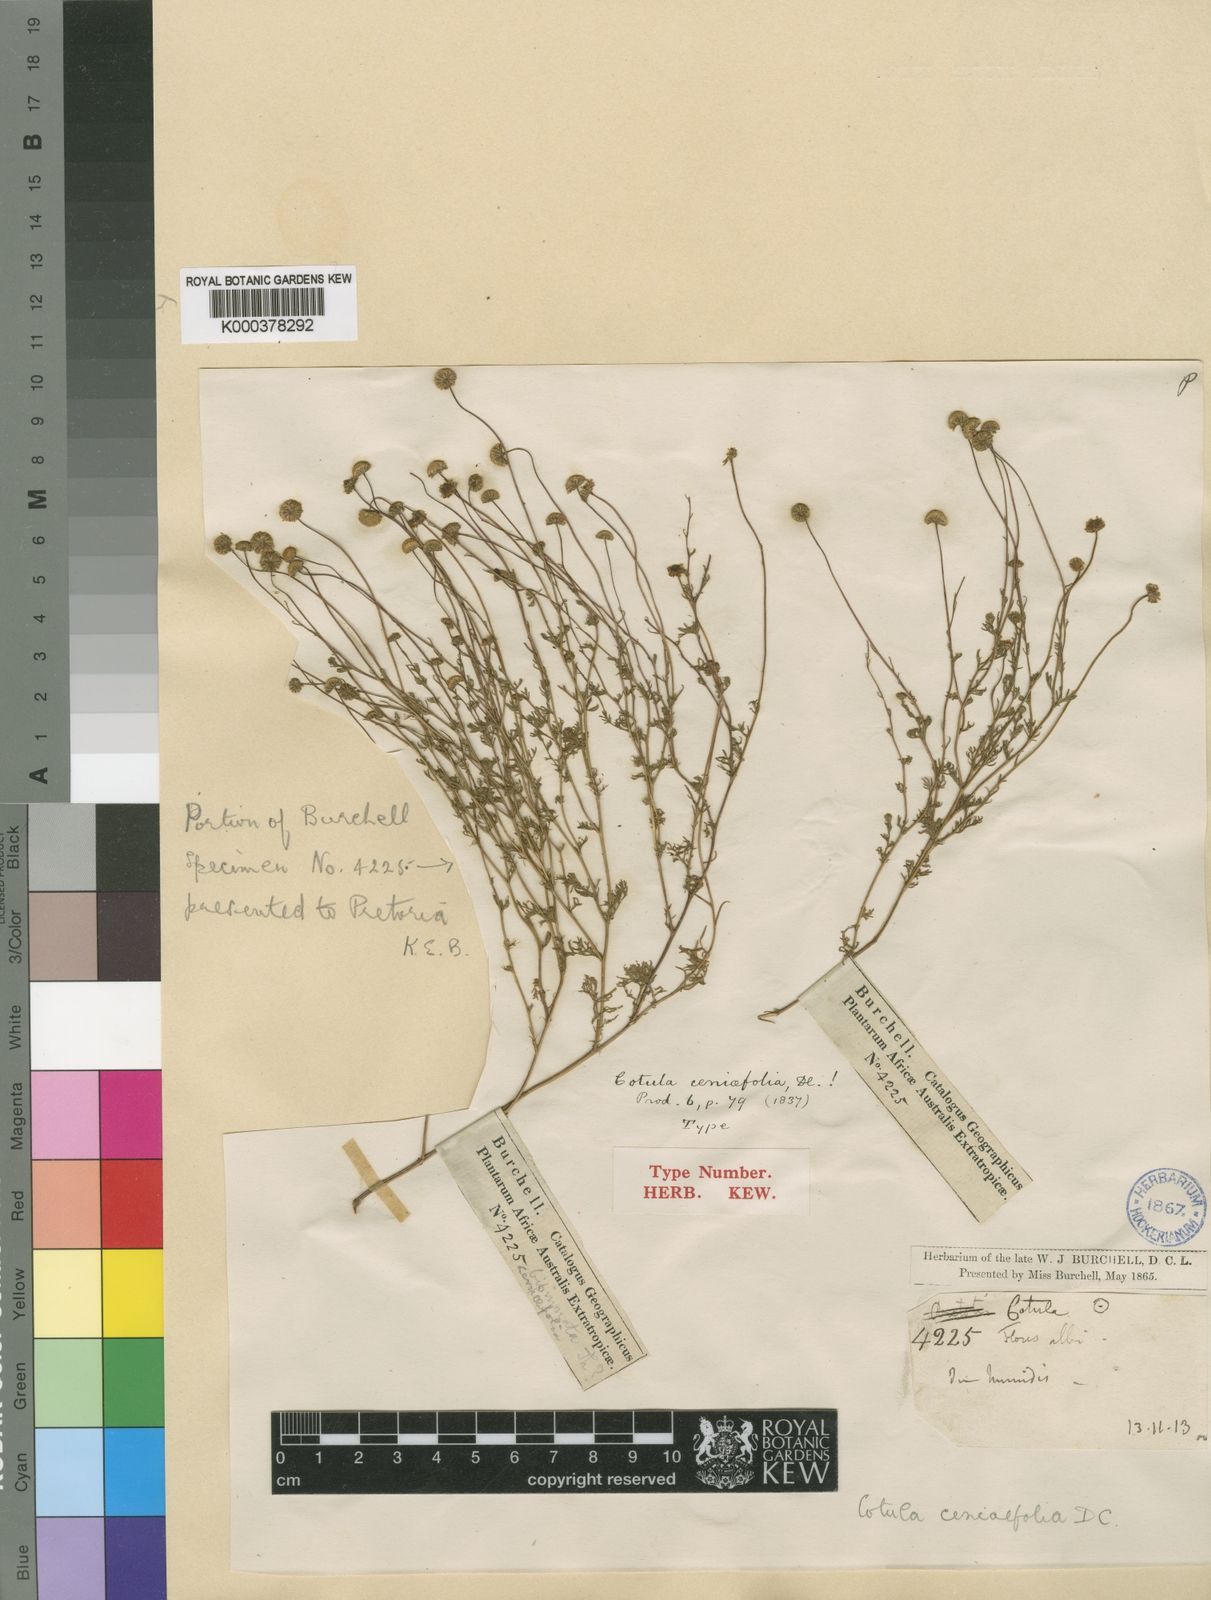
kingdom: Plantae
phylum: Tracheophyta
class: Magnoliopsida
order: Asterales
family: Asteraceae
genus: Cotula
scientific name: Cotula
